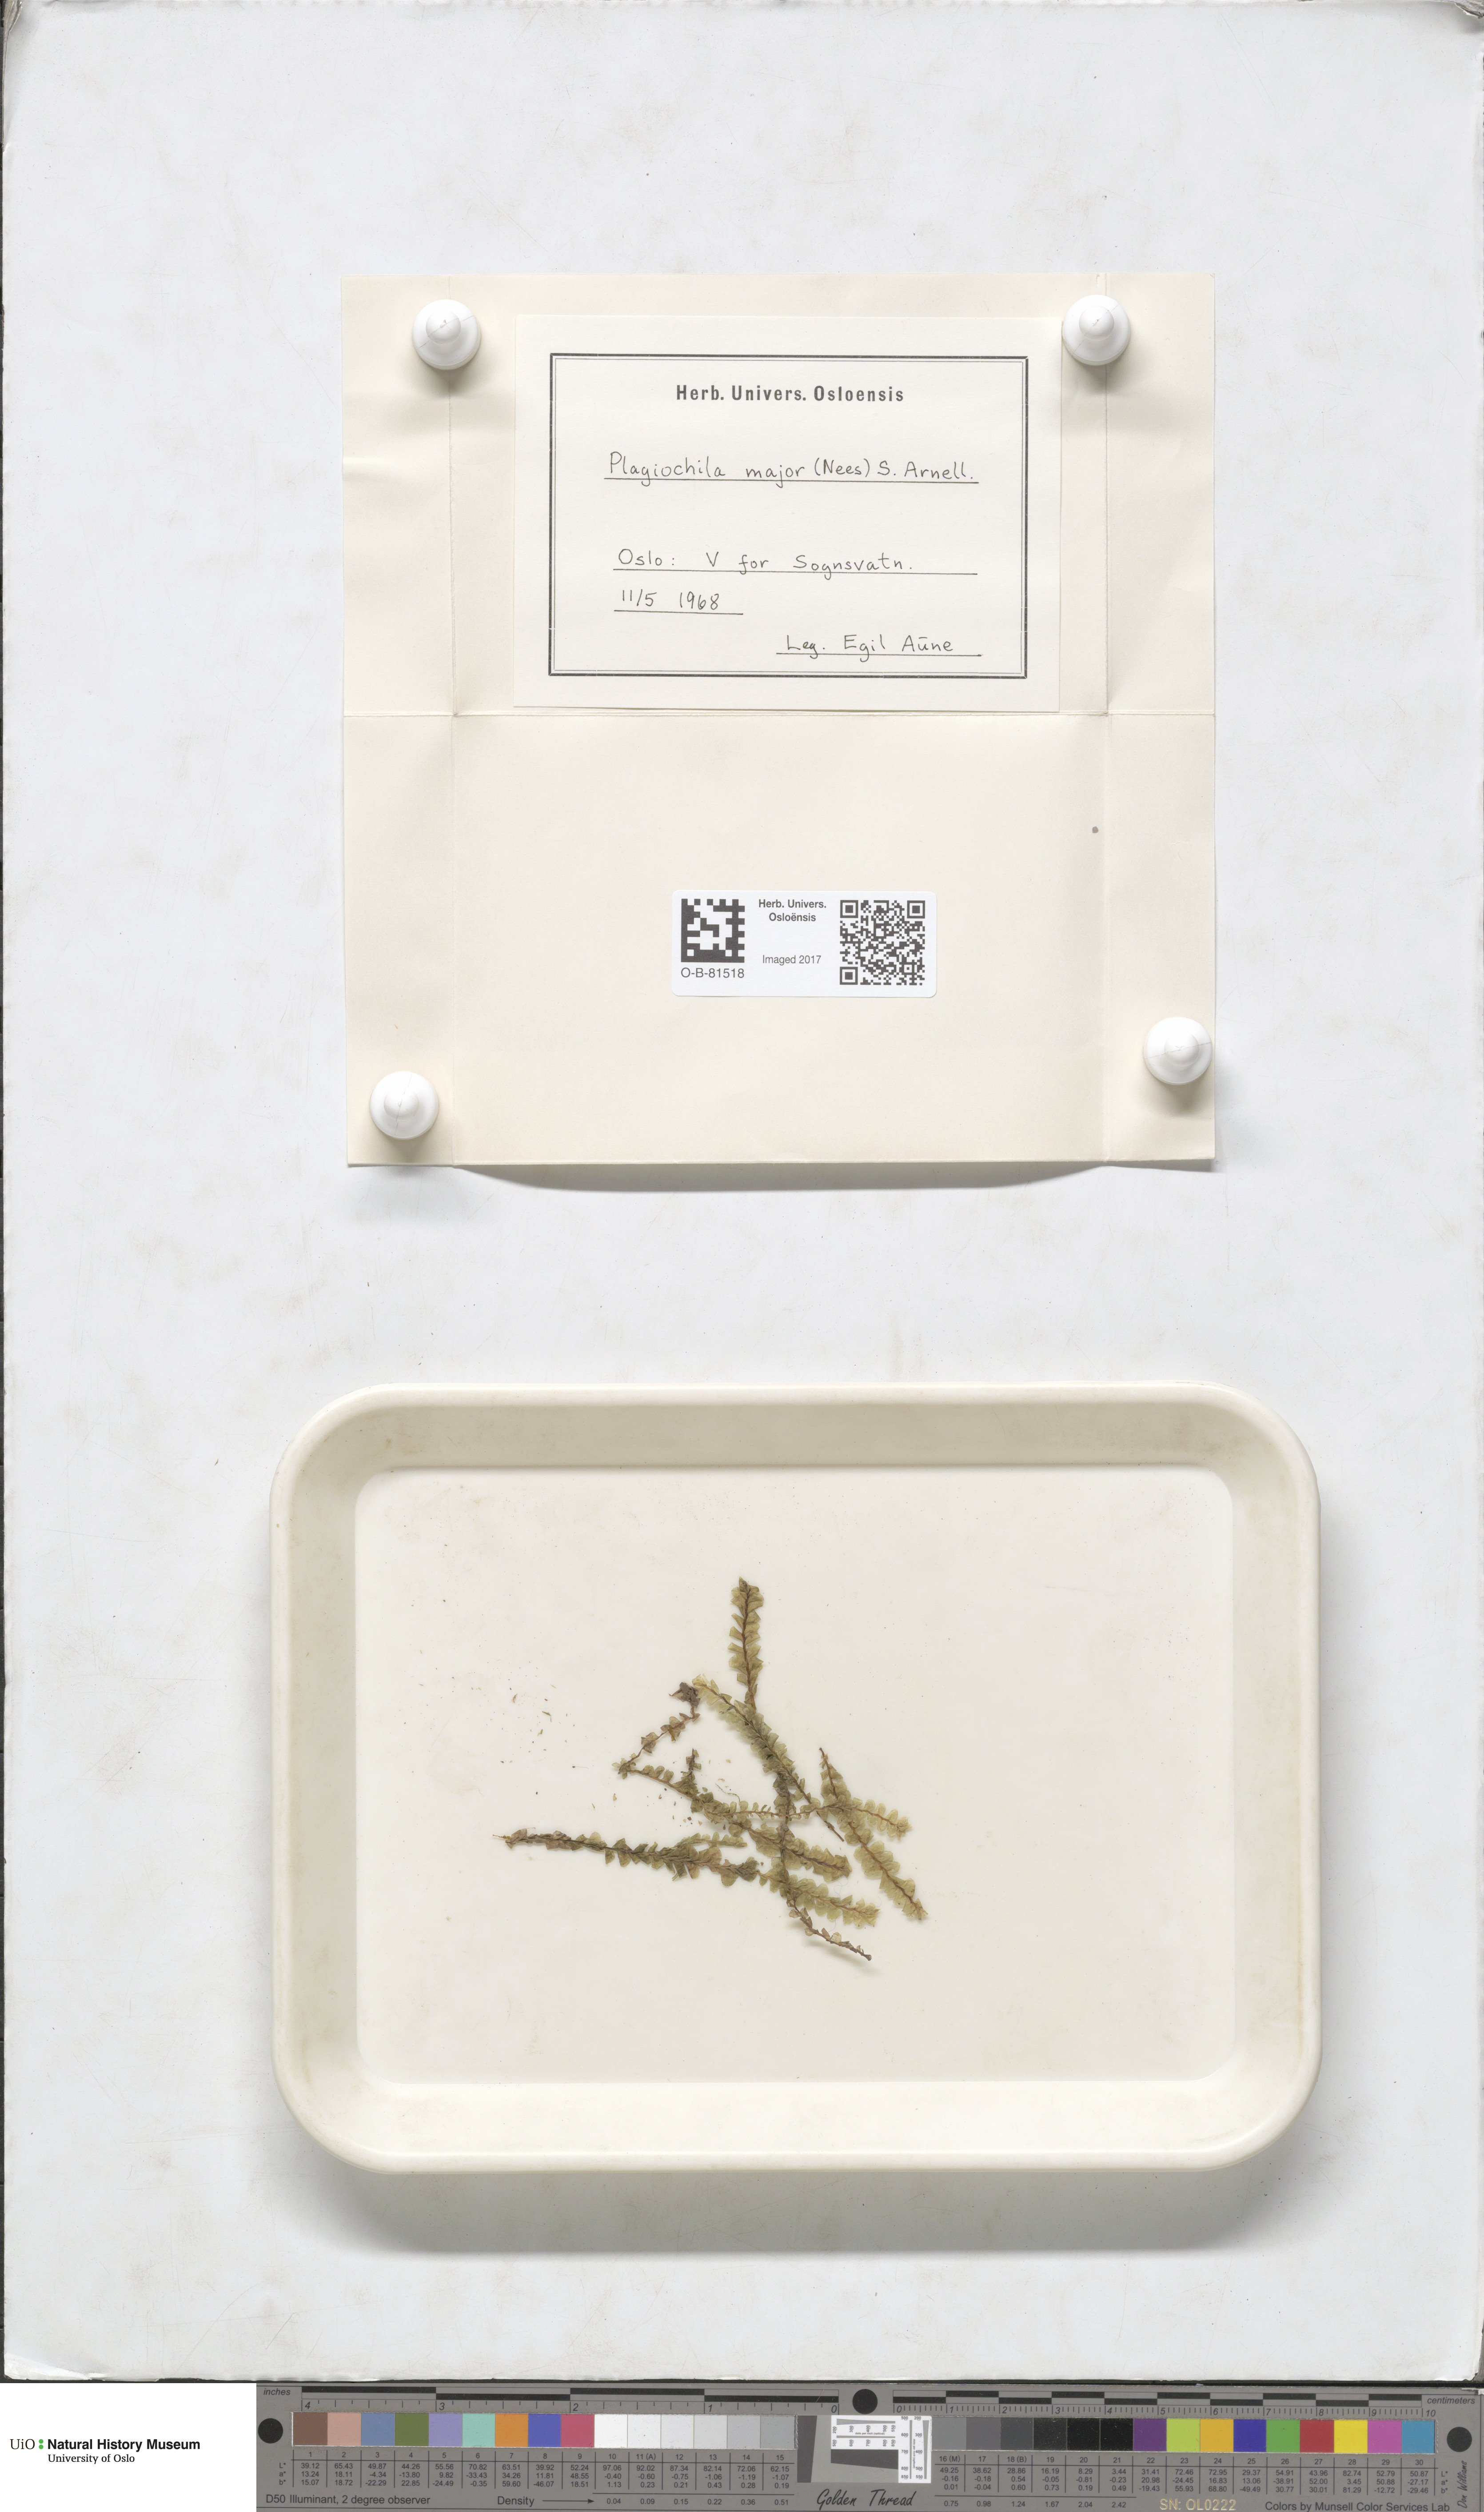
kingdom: Plantae
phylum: Marchantiophyta
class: Jungermanniopsida
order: Jungermanniales
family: Plagiochilaceae
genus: Plagiochila
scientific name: Plagiochila asplenioides
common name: Greater featherwort
